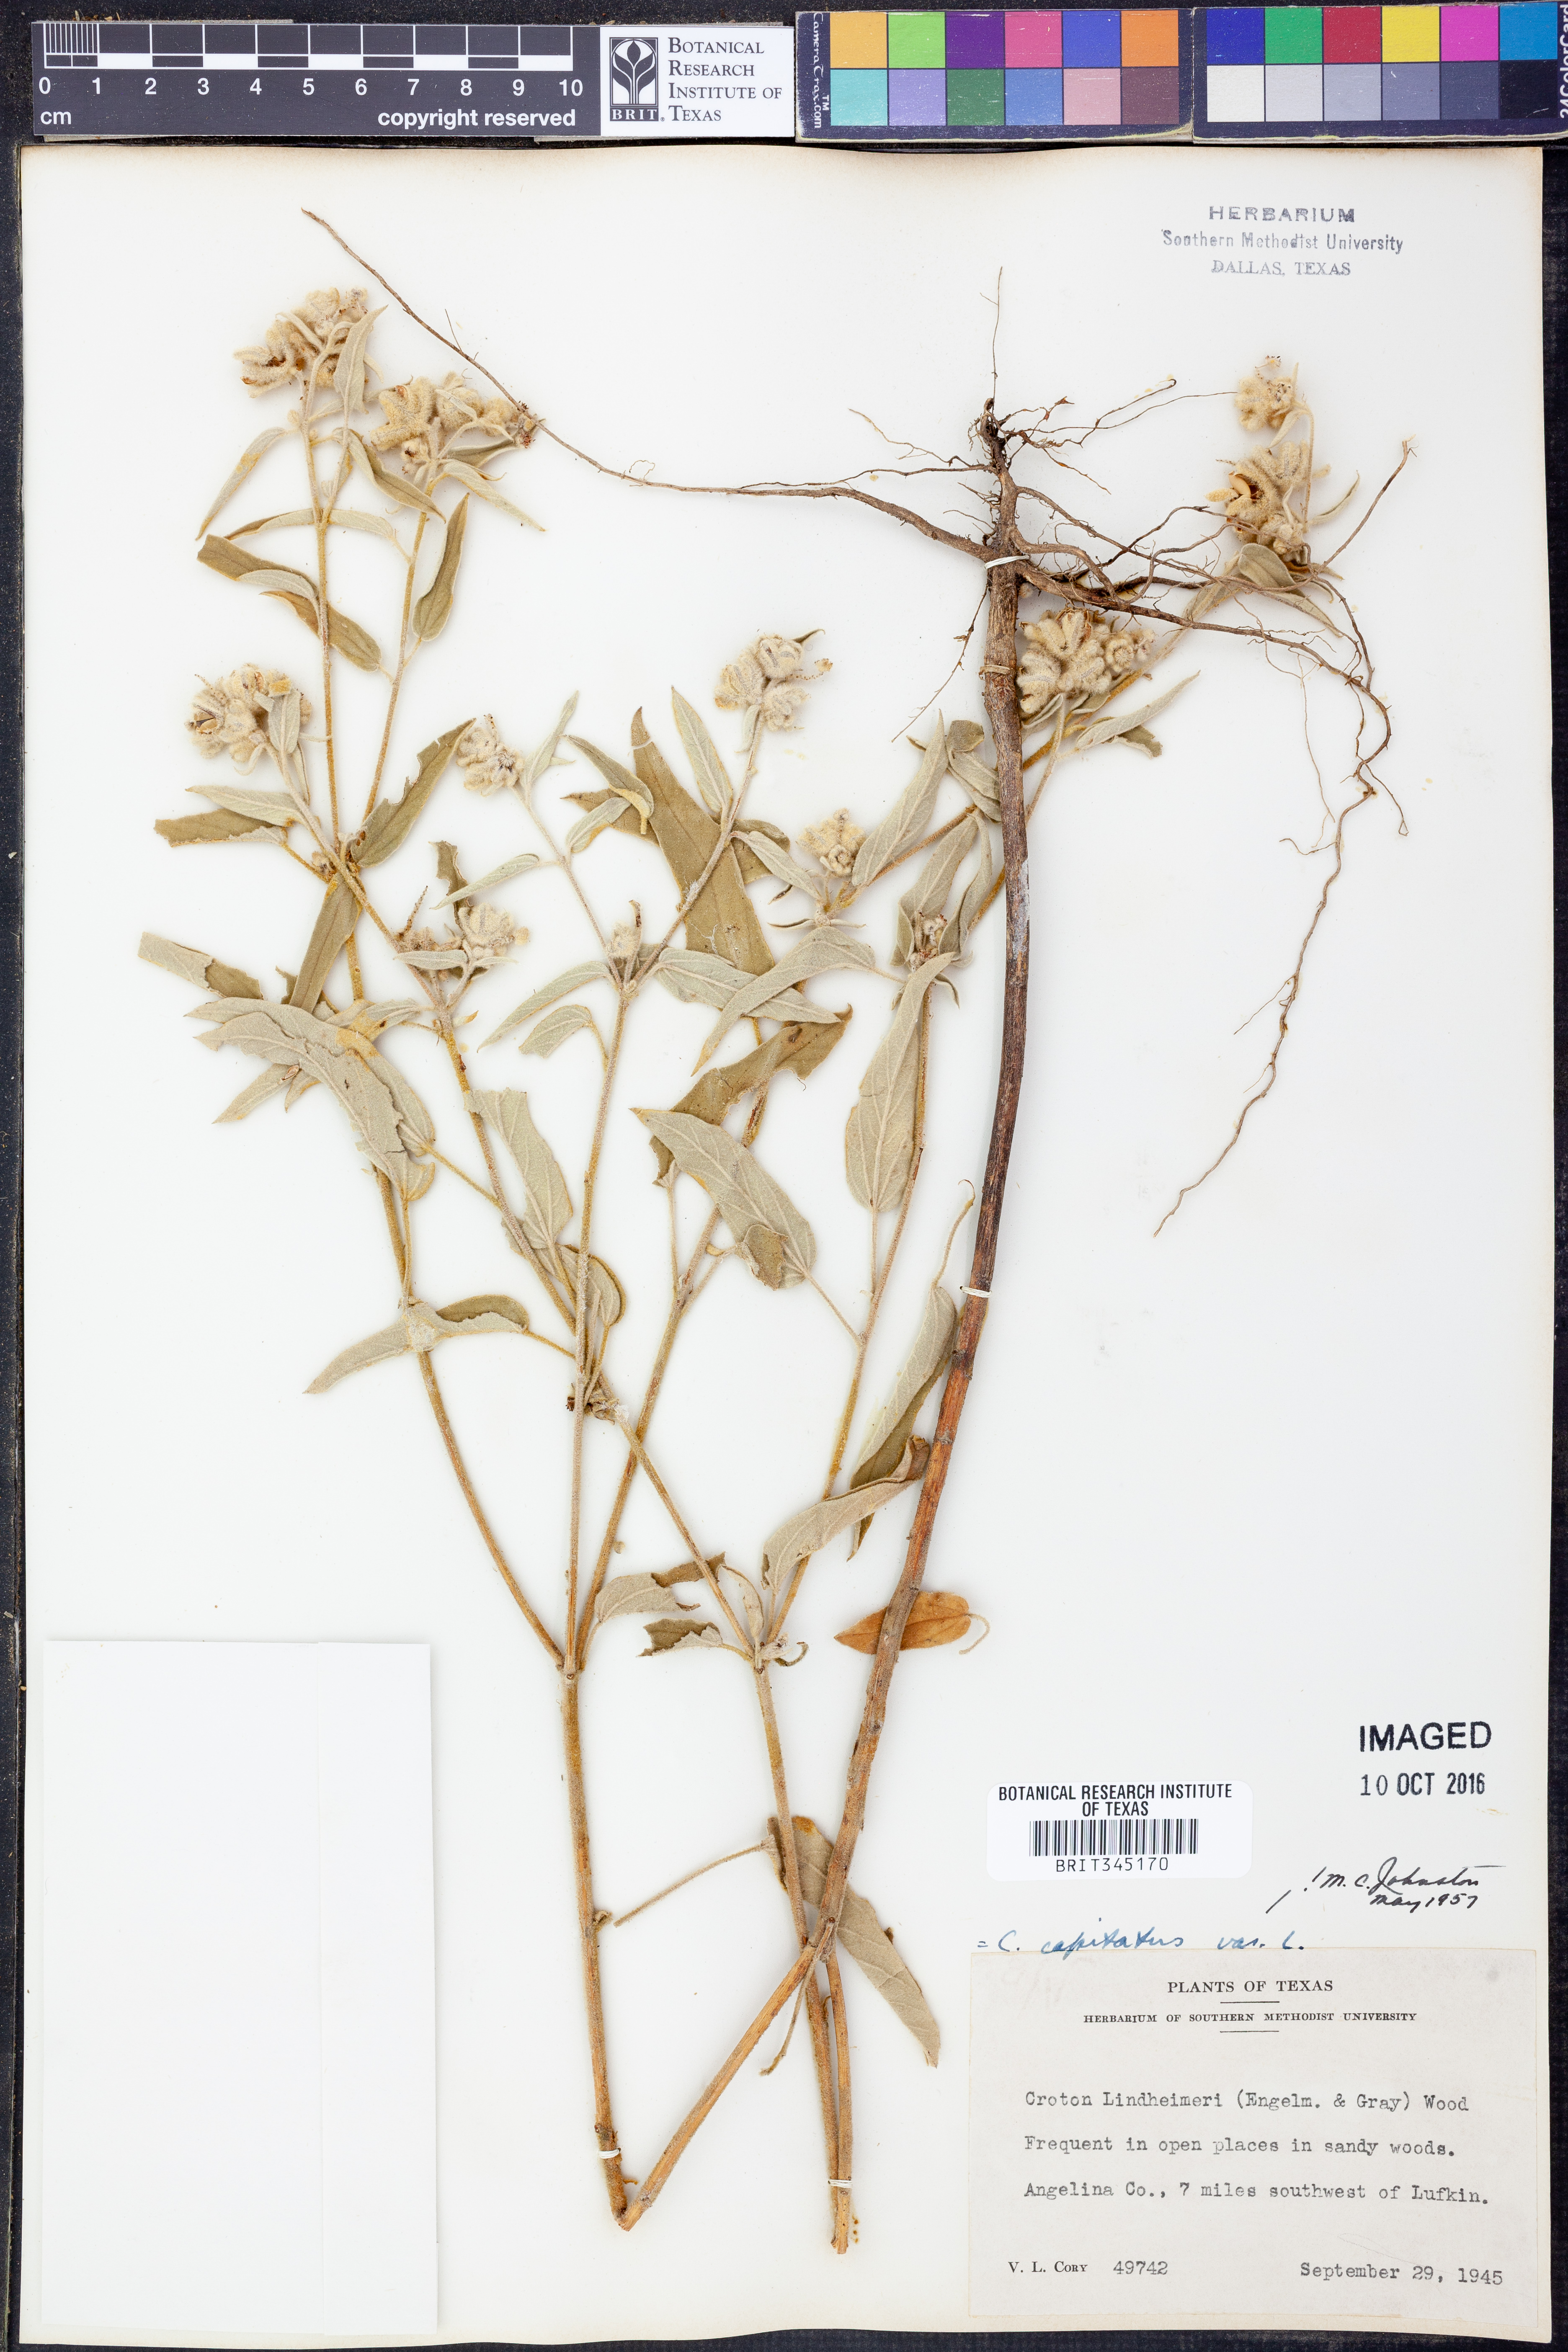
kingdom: Plantae
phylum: Tracheophyta
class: Magnoliopsida
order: Malpighiales
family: Euphorbiaceae
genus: Croton
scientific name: Croton lindheimeri
